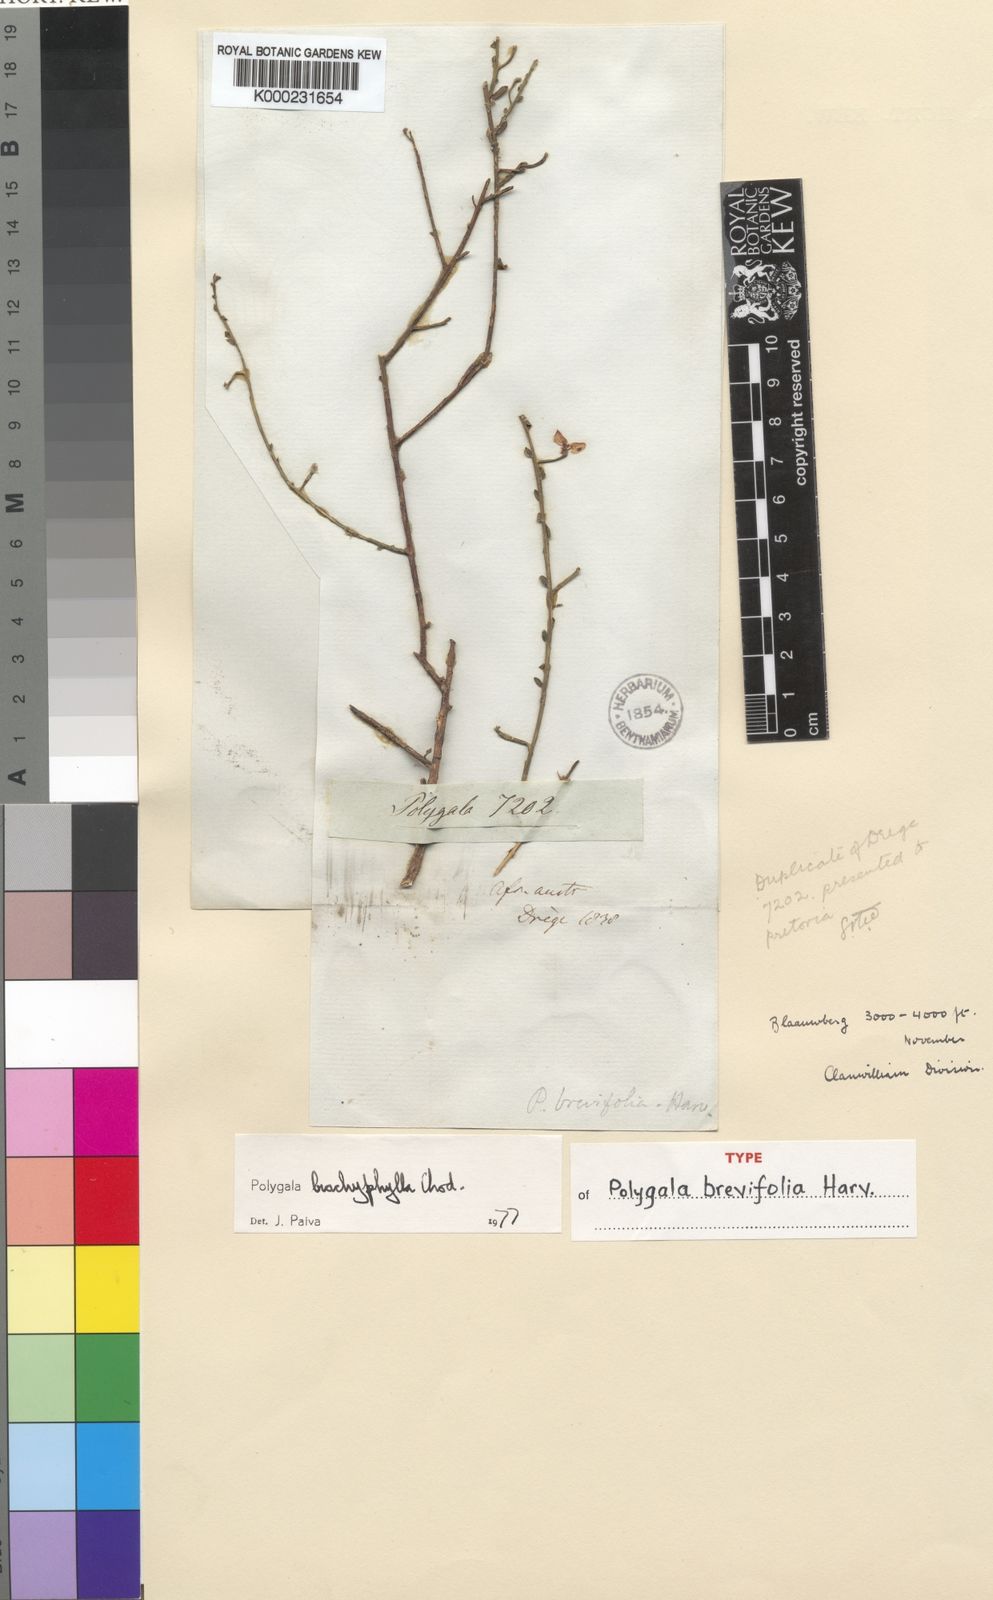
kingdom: Plantae
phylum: Tracheophyta
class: Magnoliopsida
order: Fabales
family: Polygalaceae
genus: Polygala
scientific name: Polygala
